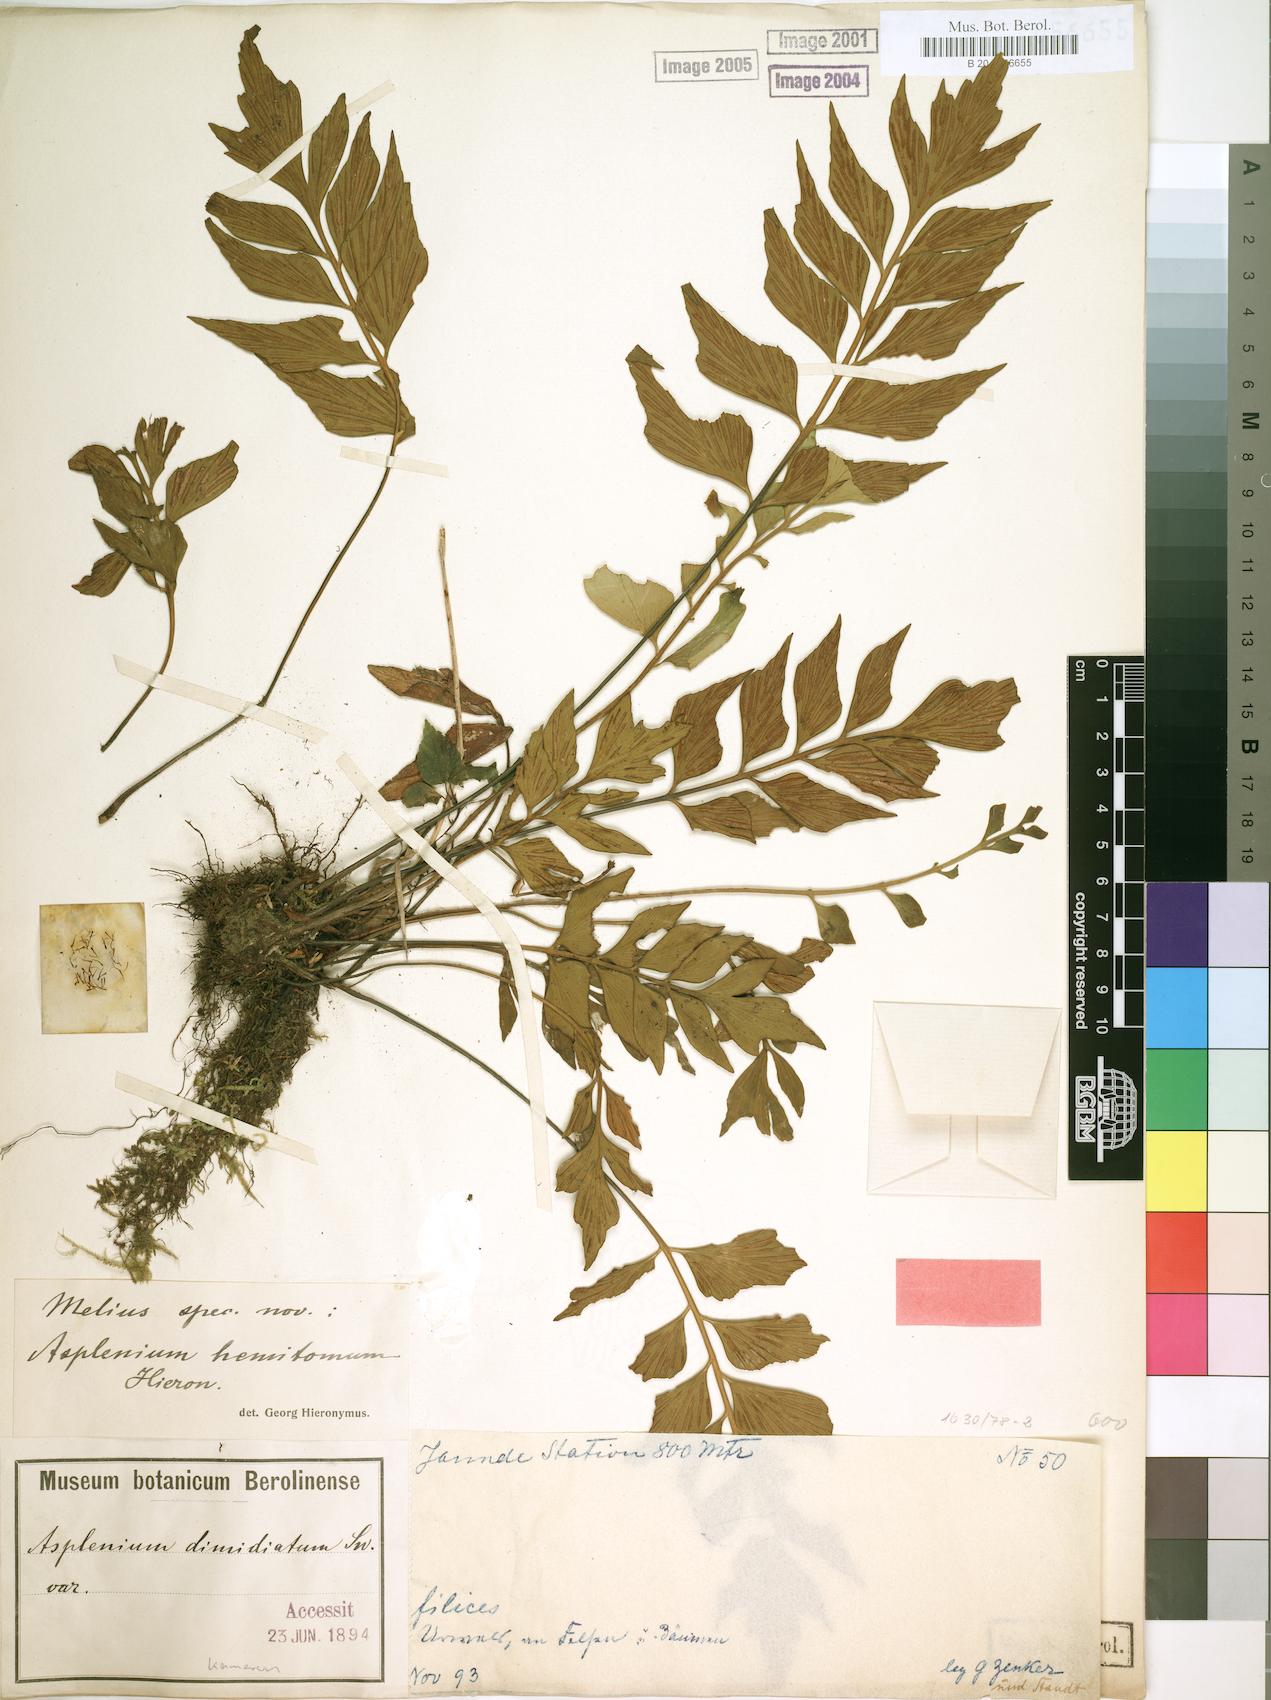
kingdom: Plantae
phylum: Tracheophyta
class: Polypodiopsida
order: Polypodiales
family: Aspleniaceae
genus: Asplenium
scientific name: Asplenium hemitomum
